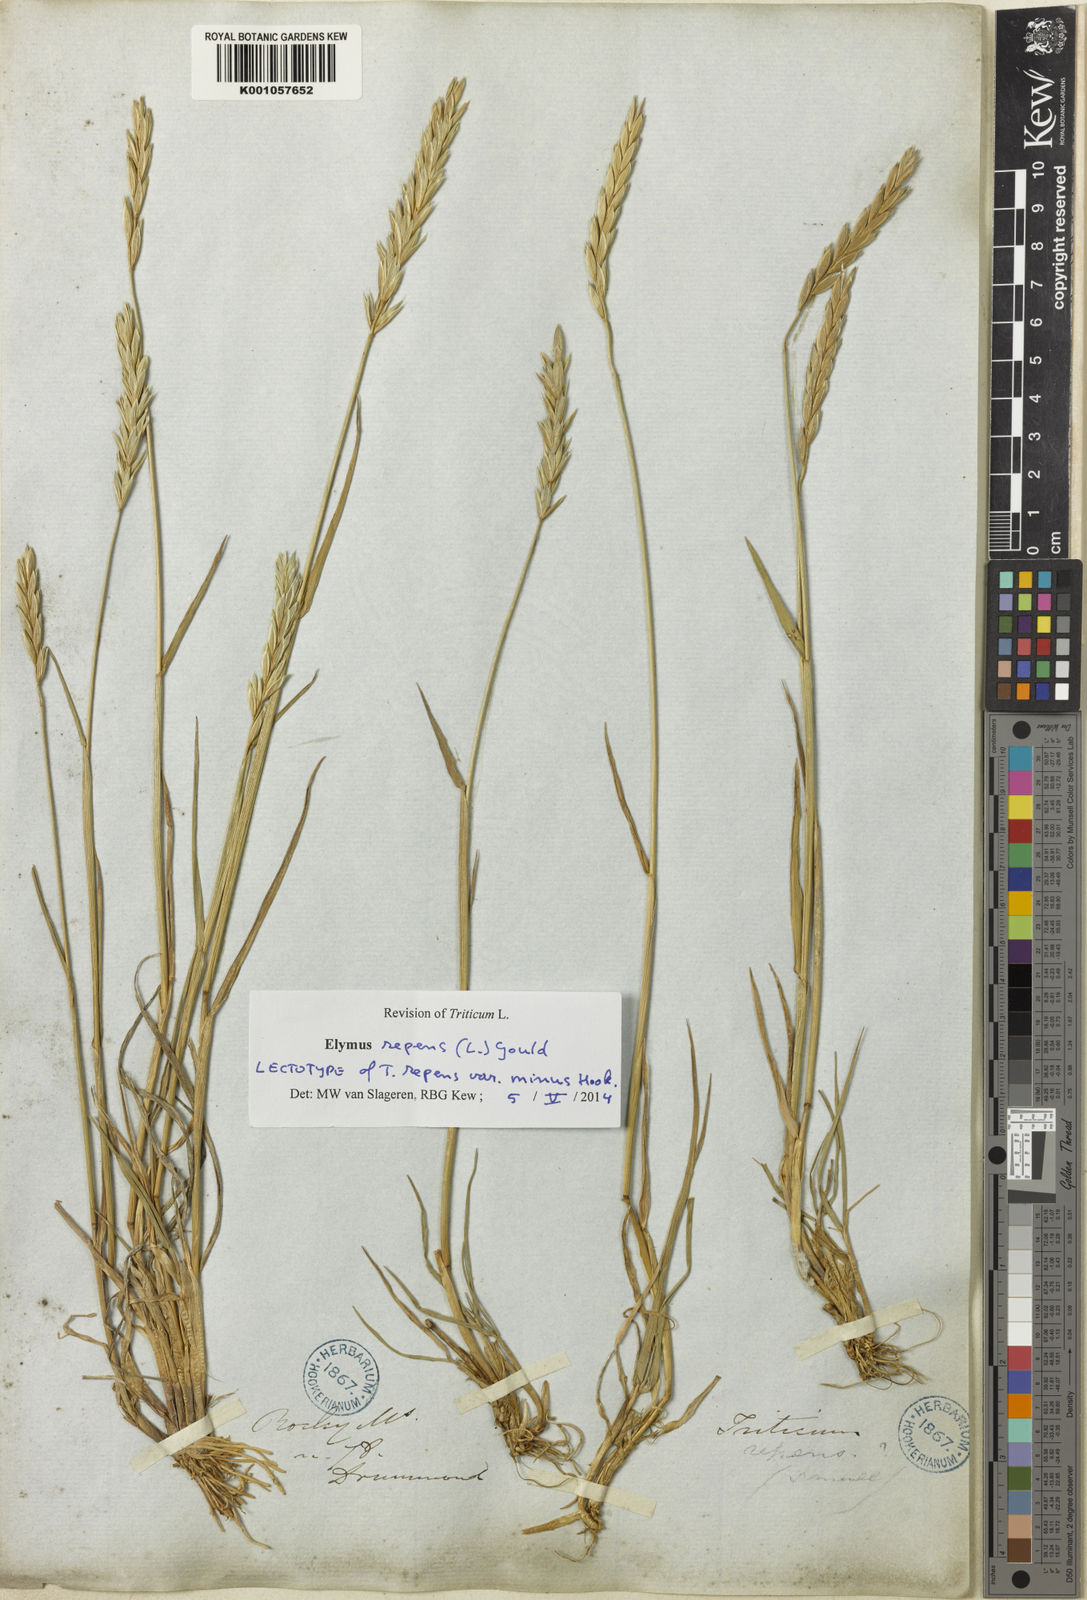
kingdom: Plantae
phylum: Tracheophyta
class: Liliopsida
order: Poales
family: Poaceae
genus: Elymus
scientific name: Elymus repens
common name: Quackgrass
